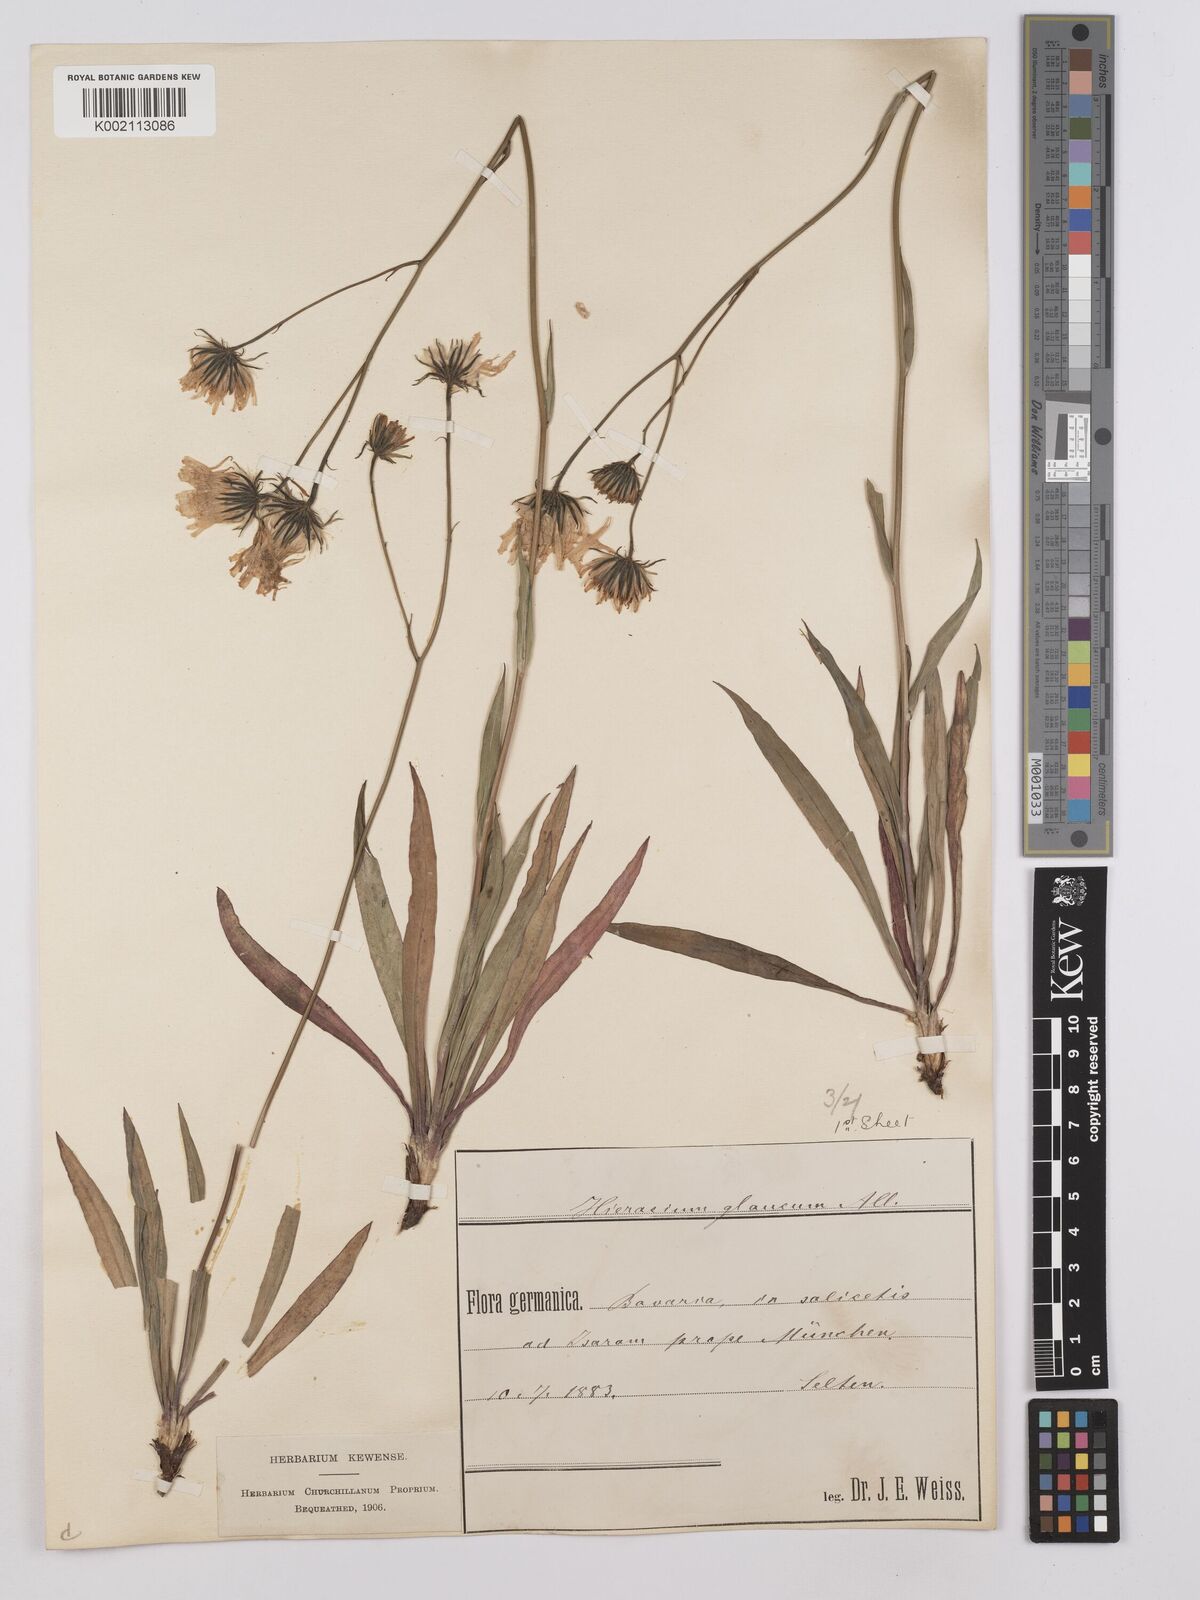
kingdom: Plantae
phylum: Tracheophyta
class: Magnoliopsida
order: Asterales
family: Asteraceae
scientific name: Asteraceae
